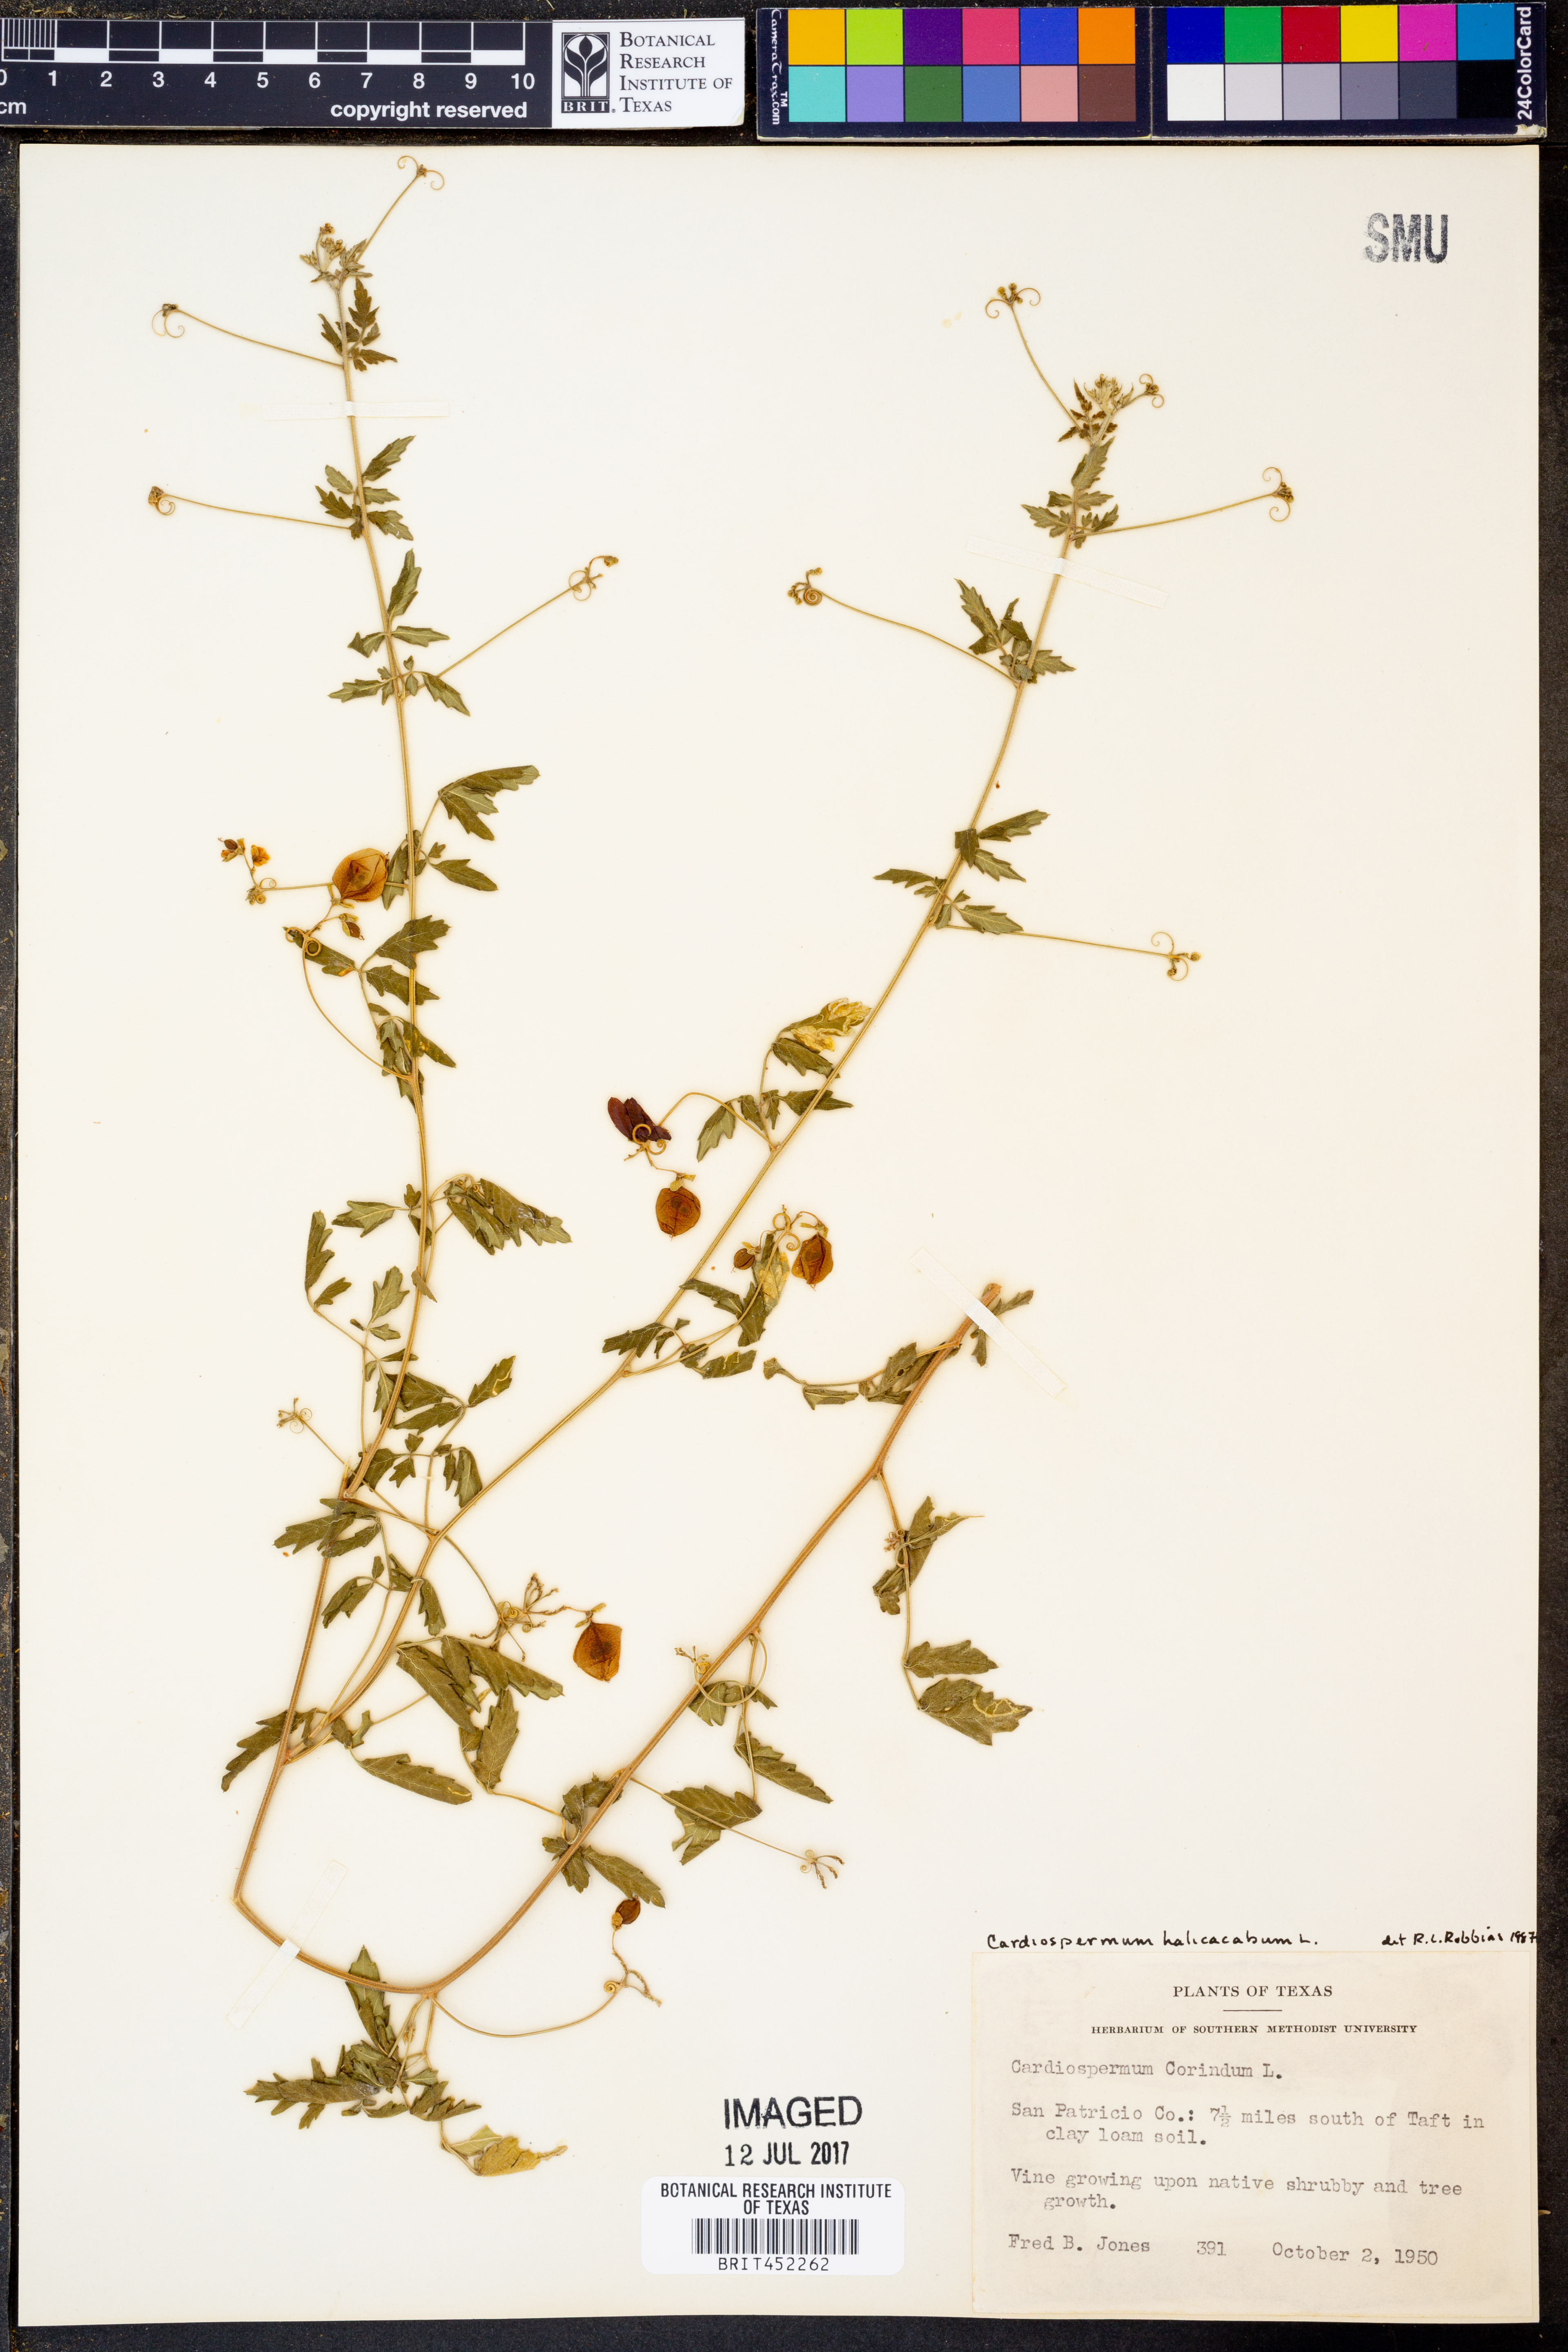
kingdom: Plantae
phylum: Tracheophyta
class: Magnoliopsida
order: Sapindales
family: Sapindaceae
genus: Cardiospermum
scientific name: Cardiospermum halicacabum
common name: Balloon vine
